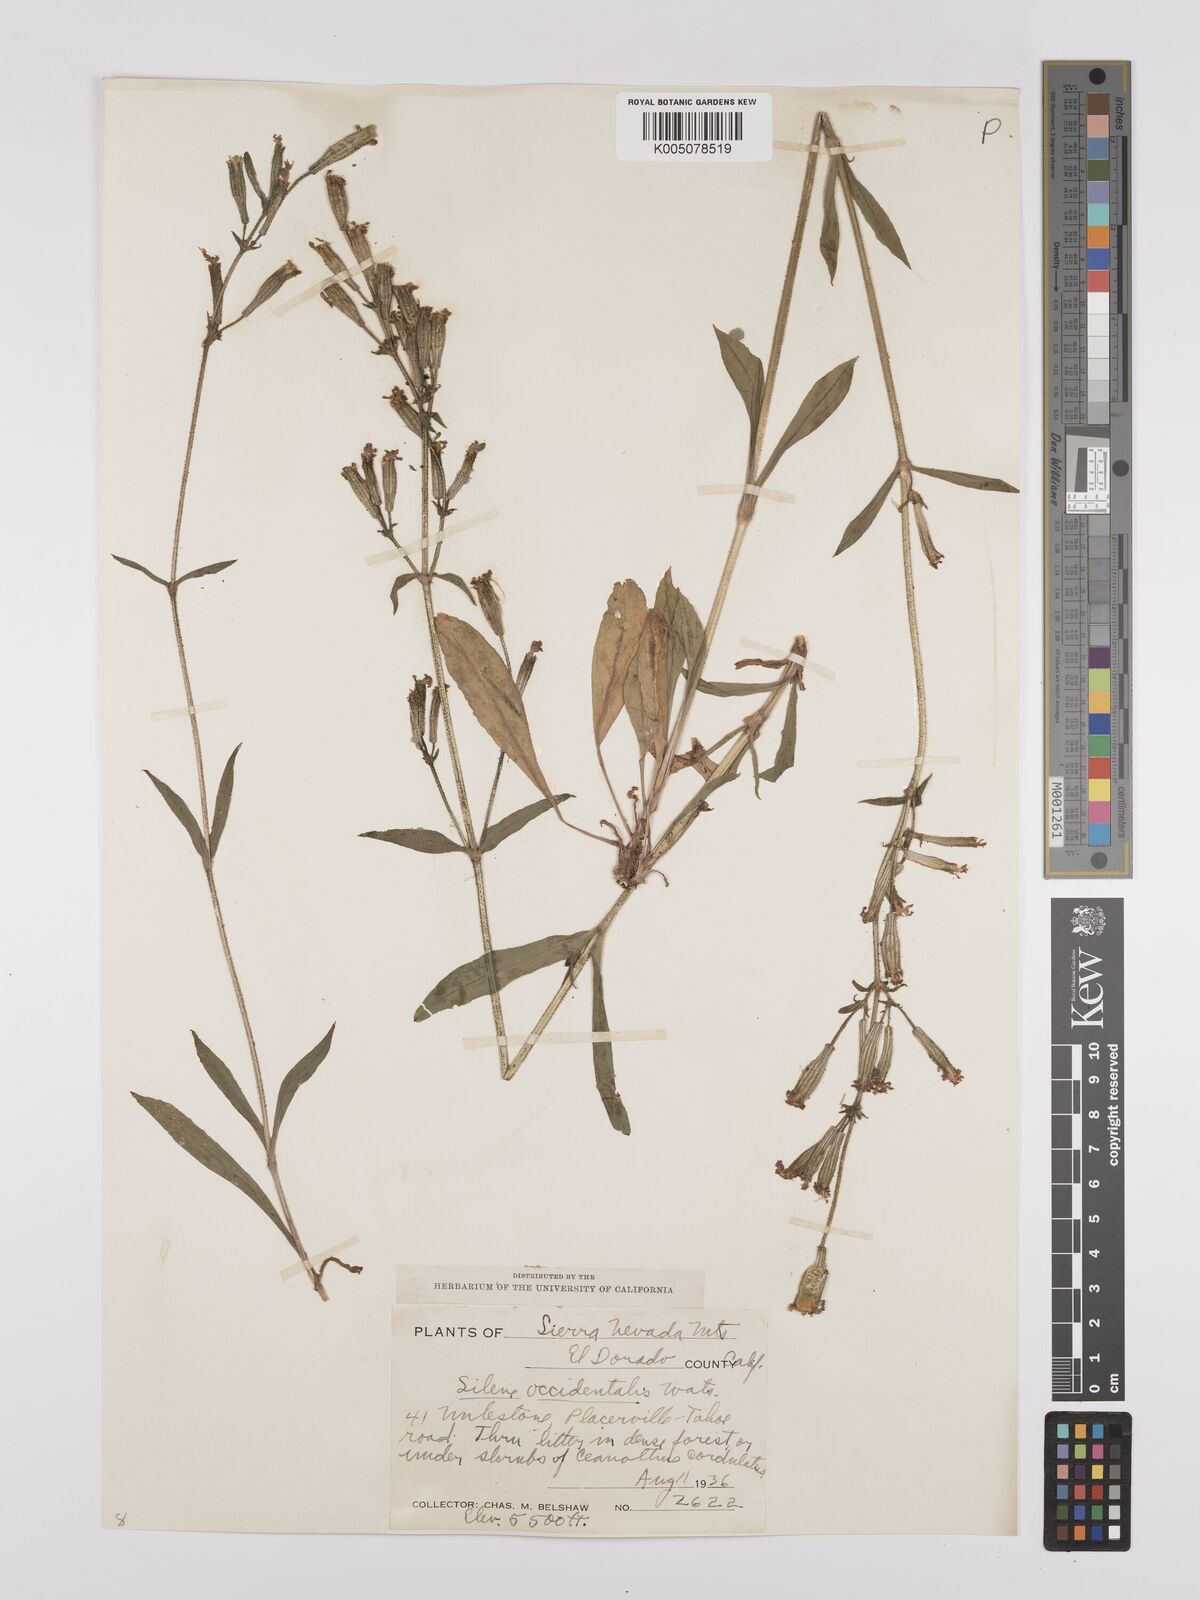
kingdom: Plantae
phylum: Tracheophyta
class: Magnoliopsida
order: Caryophyllales
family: Caryophyllaceae
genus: Silene
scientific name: Silene occidentalis
